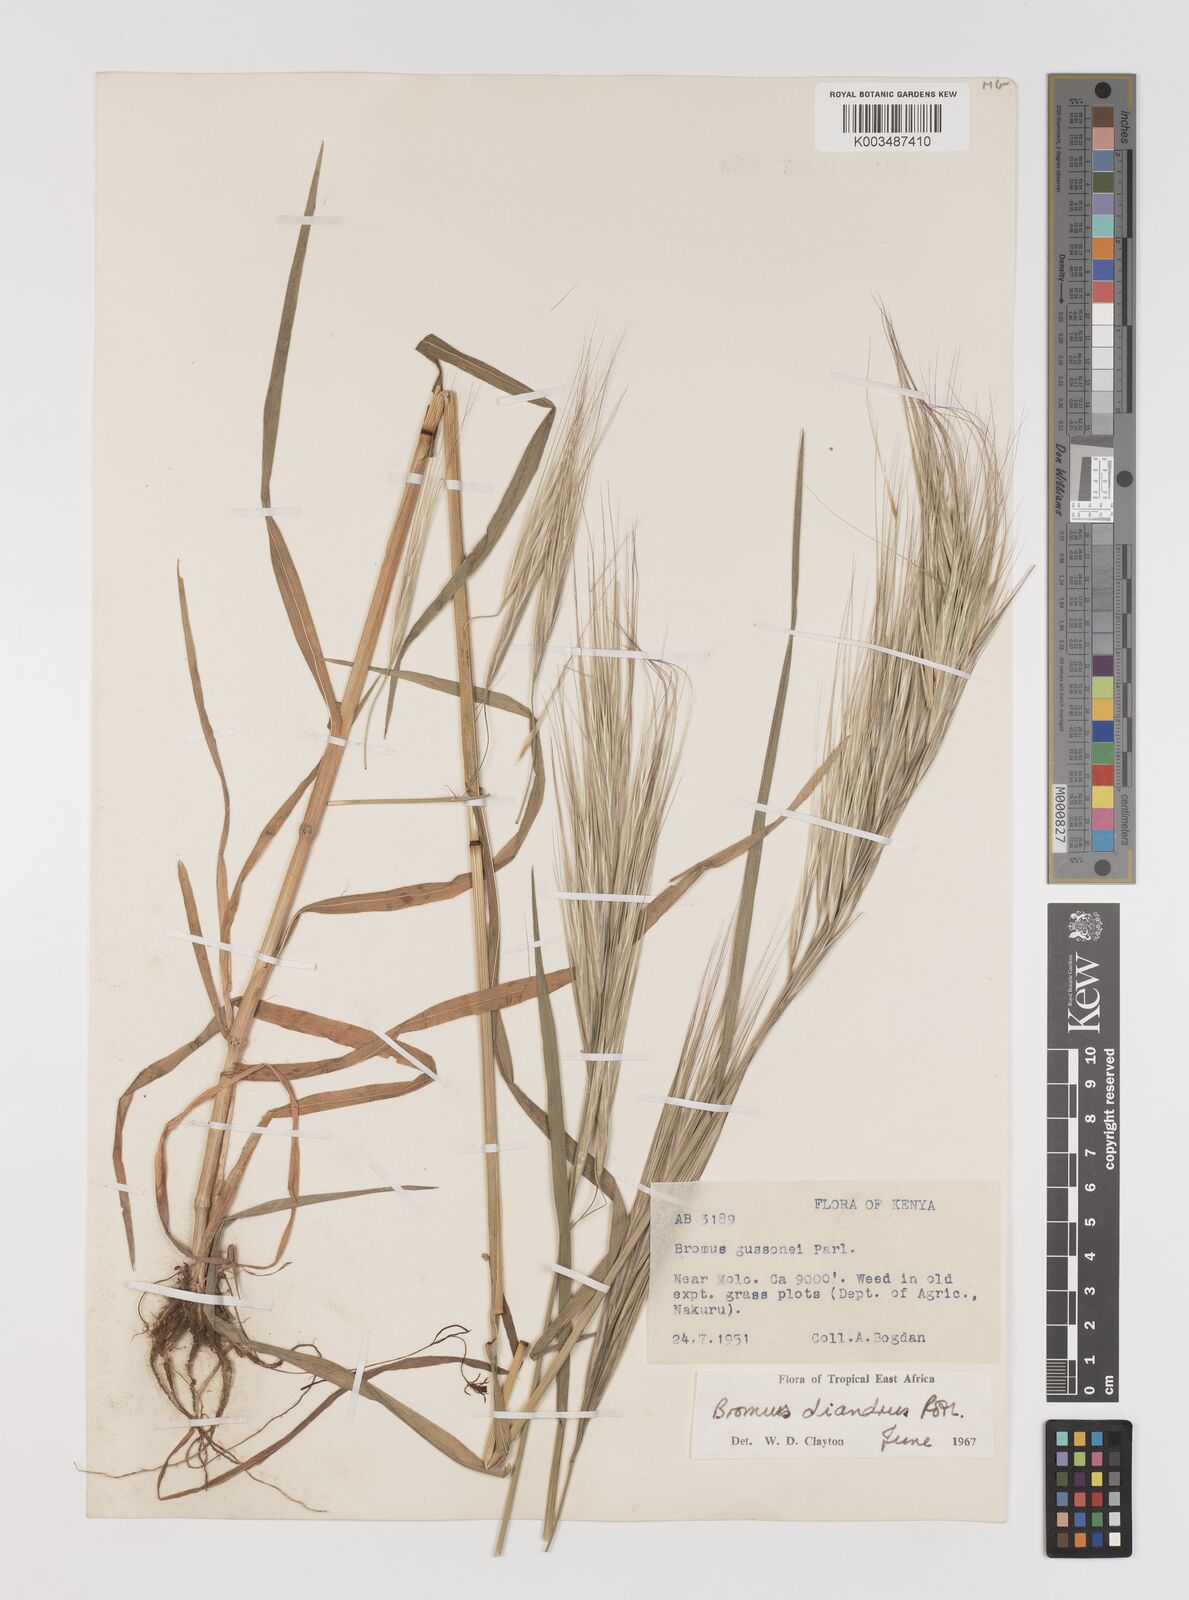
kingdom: Plantae
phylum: Tracheophyta
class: Liliopsida
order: Poales
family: Poaceae
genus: Bromus
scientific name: Bromus diandrus
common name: Ripgut brome
